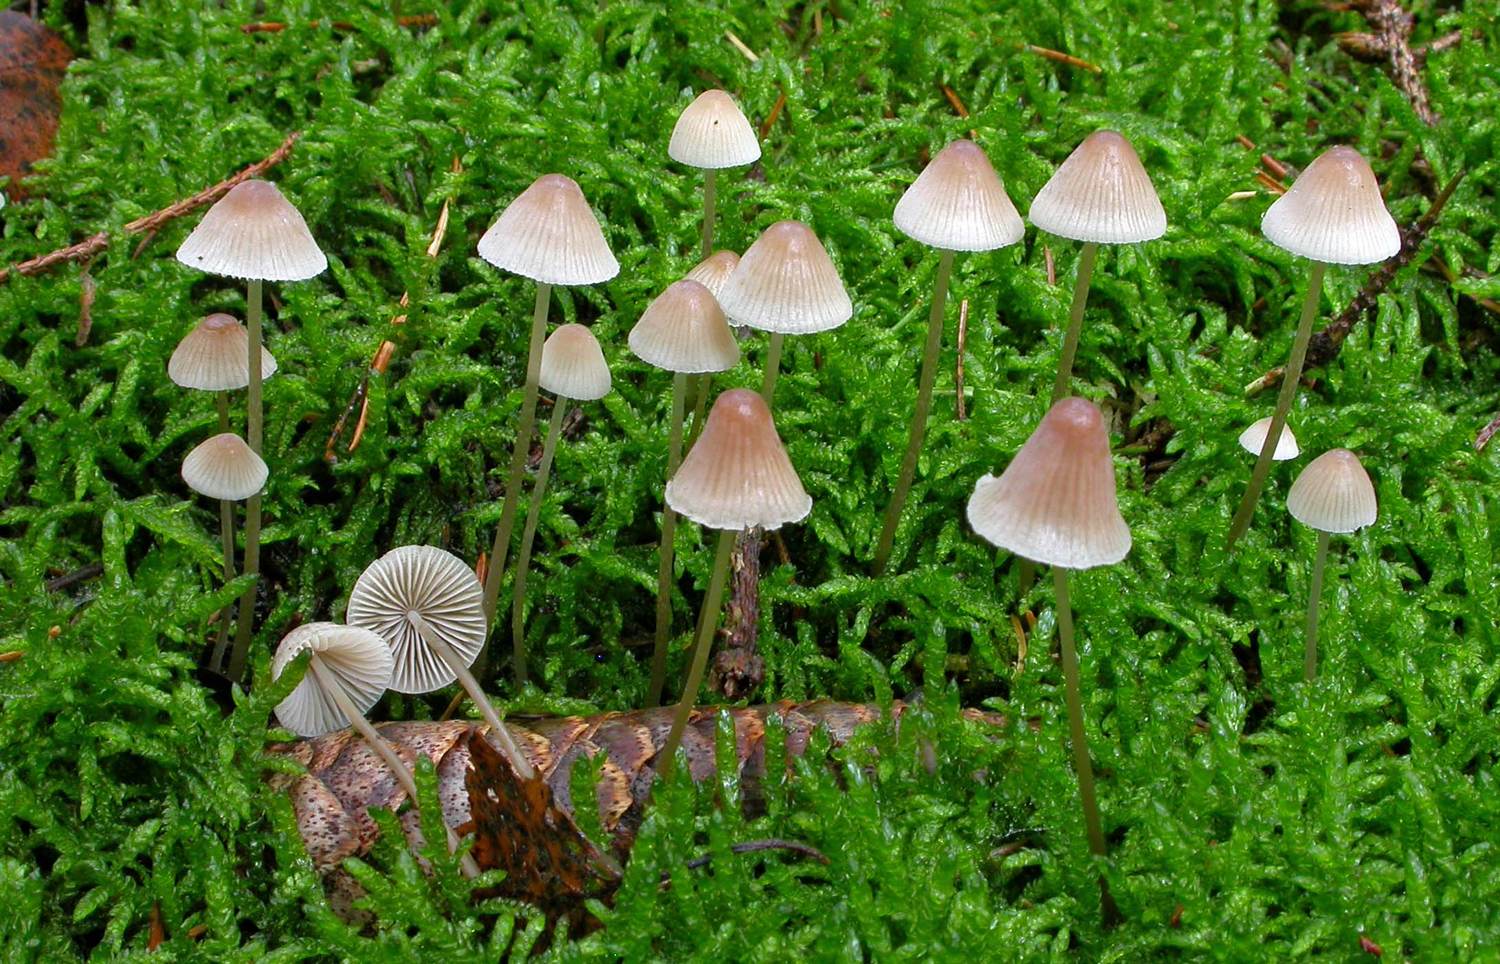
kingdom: Fungi
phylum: Basidiomycota
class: Agaricomycetes
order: Agaricales
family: Mycenaceae
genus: Mycena
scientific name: Mycena metata
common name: rødlig huesvamp
